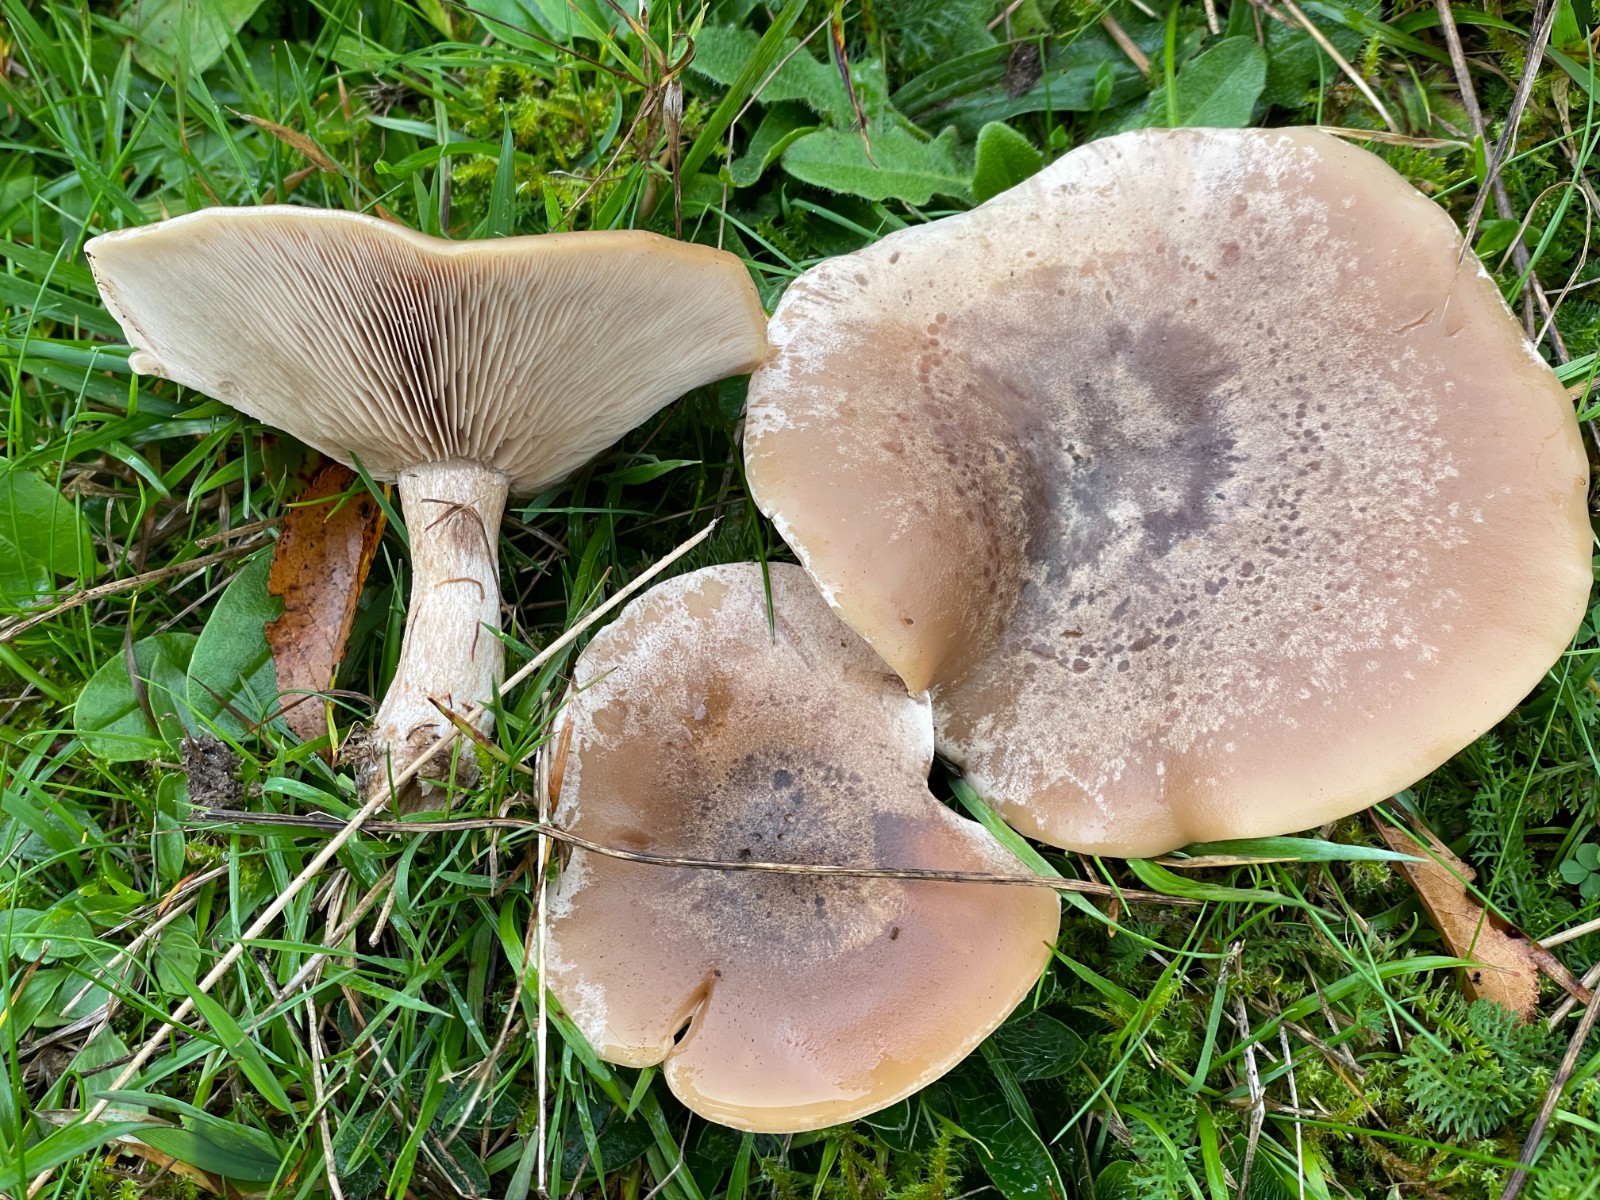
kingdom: Fungi
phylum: Basidiomycota
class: Agaricomycetes
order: Agaricales
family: Tricholomataceae
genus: Lepista
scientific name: Lepista panaeolus
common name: marmoreret hekseringshat
